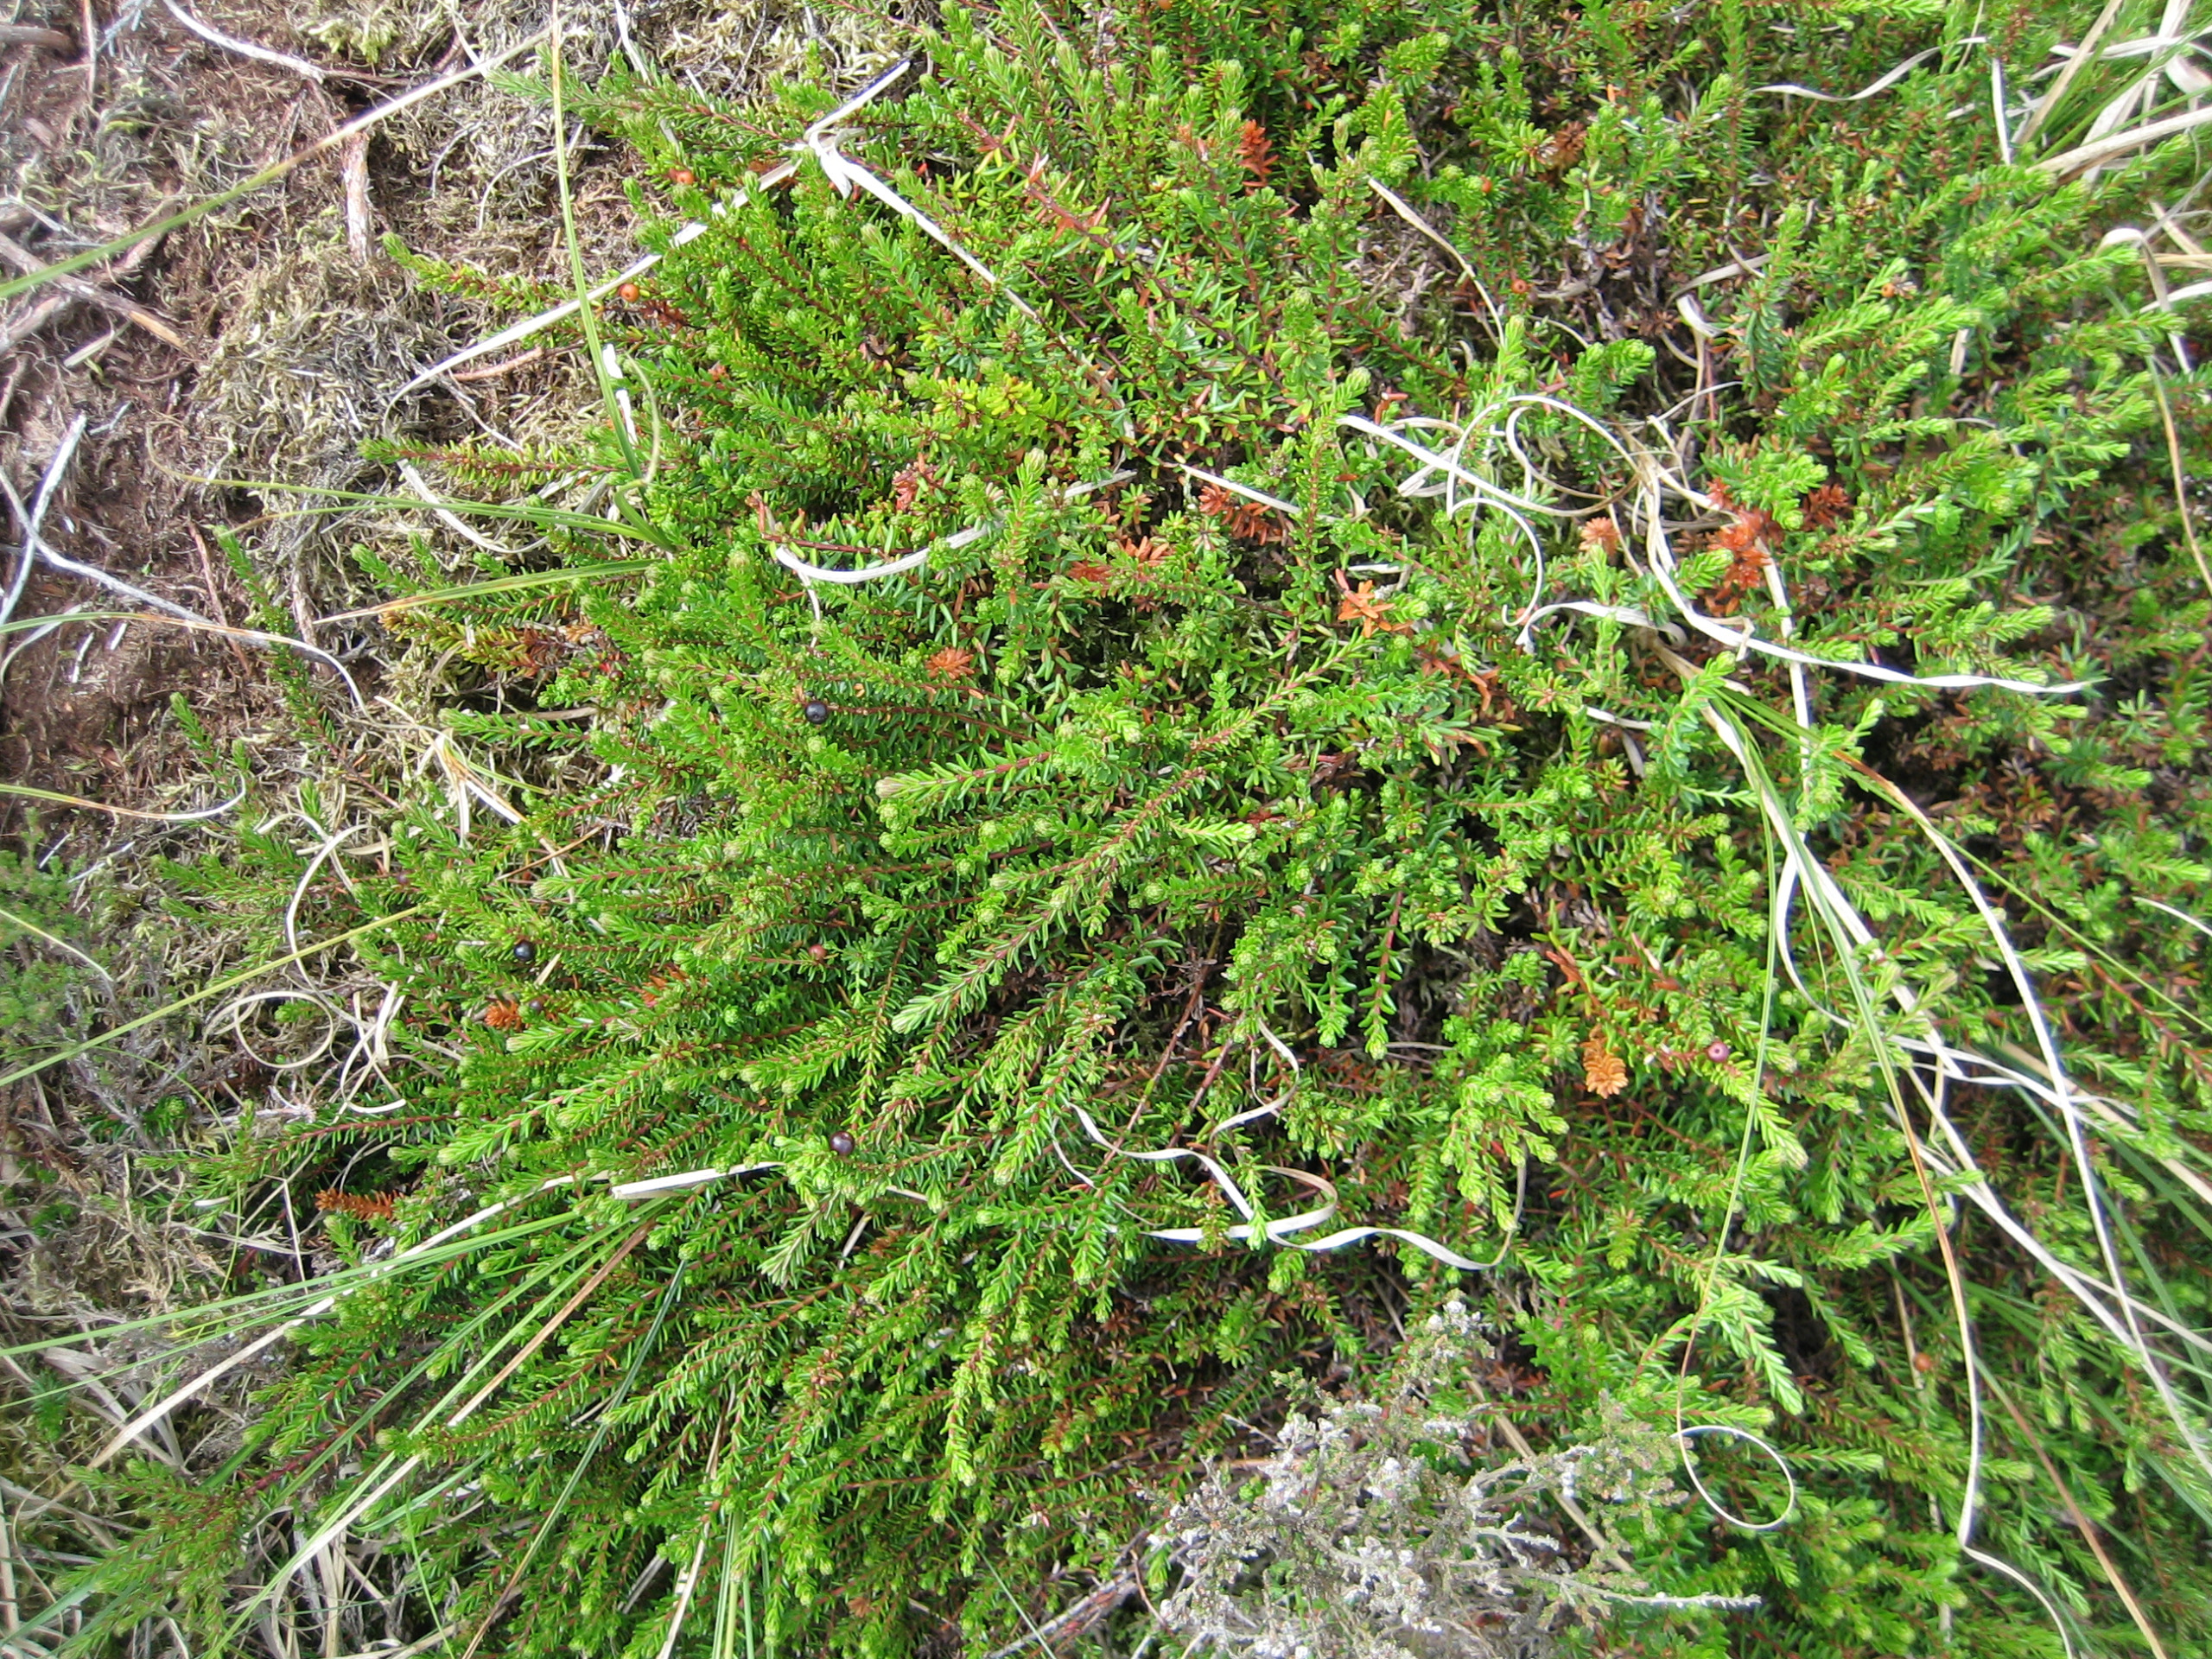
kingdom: Plantae
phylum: Tracheophyta
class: Magnoliopsida
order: Ericales
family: Ericaceae
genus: Empetrum
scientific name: Empetrum nigrum
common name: Revling
